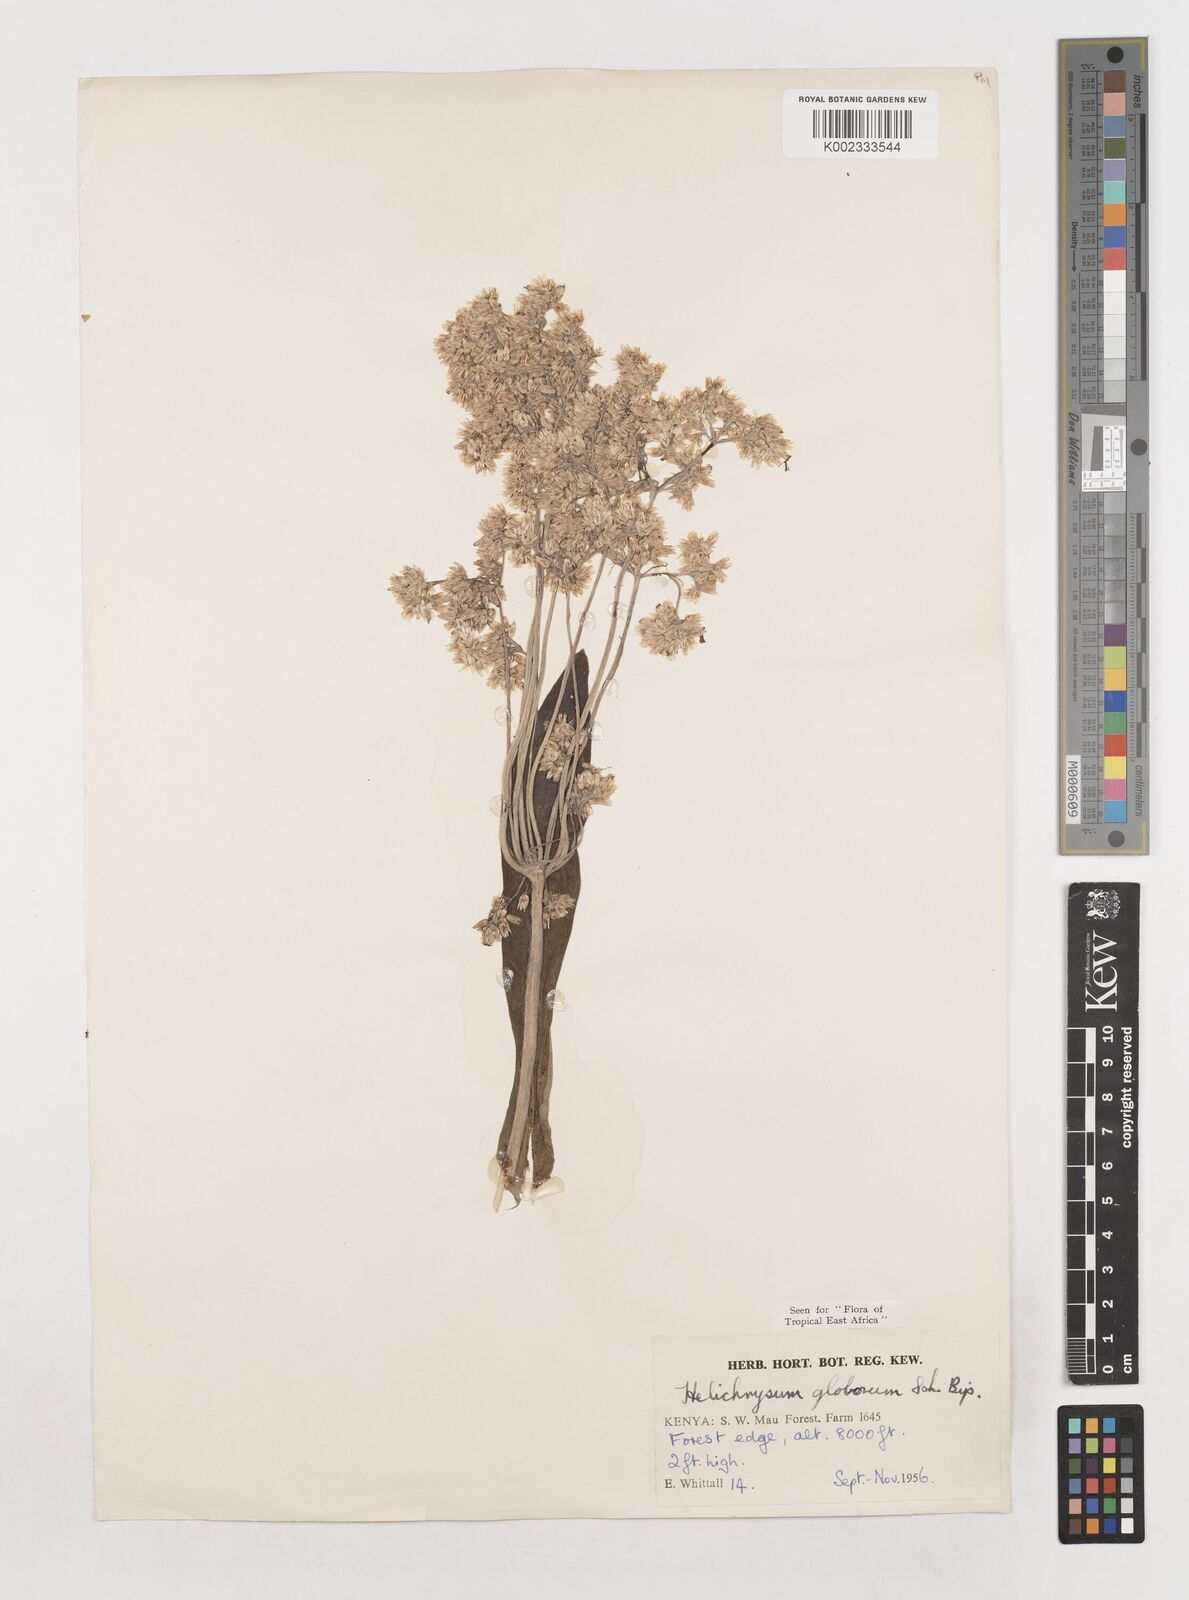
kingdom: Plantae
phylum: Tracheophyta
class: Magnoliopsida
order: Asterales
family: Asteraceae
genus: Helichrysum
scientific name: Helichrysum globosum
